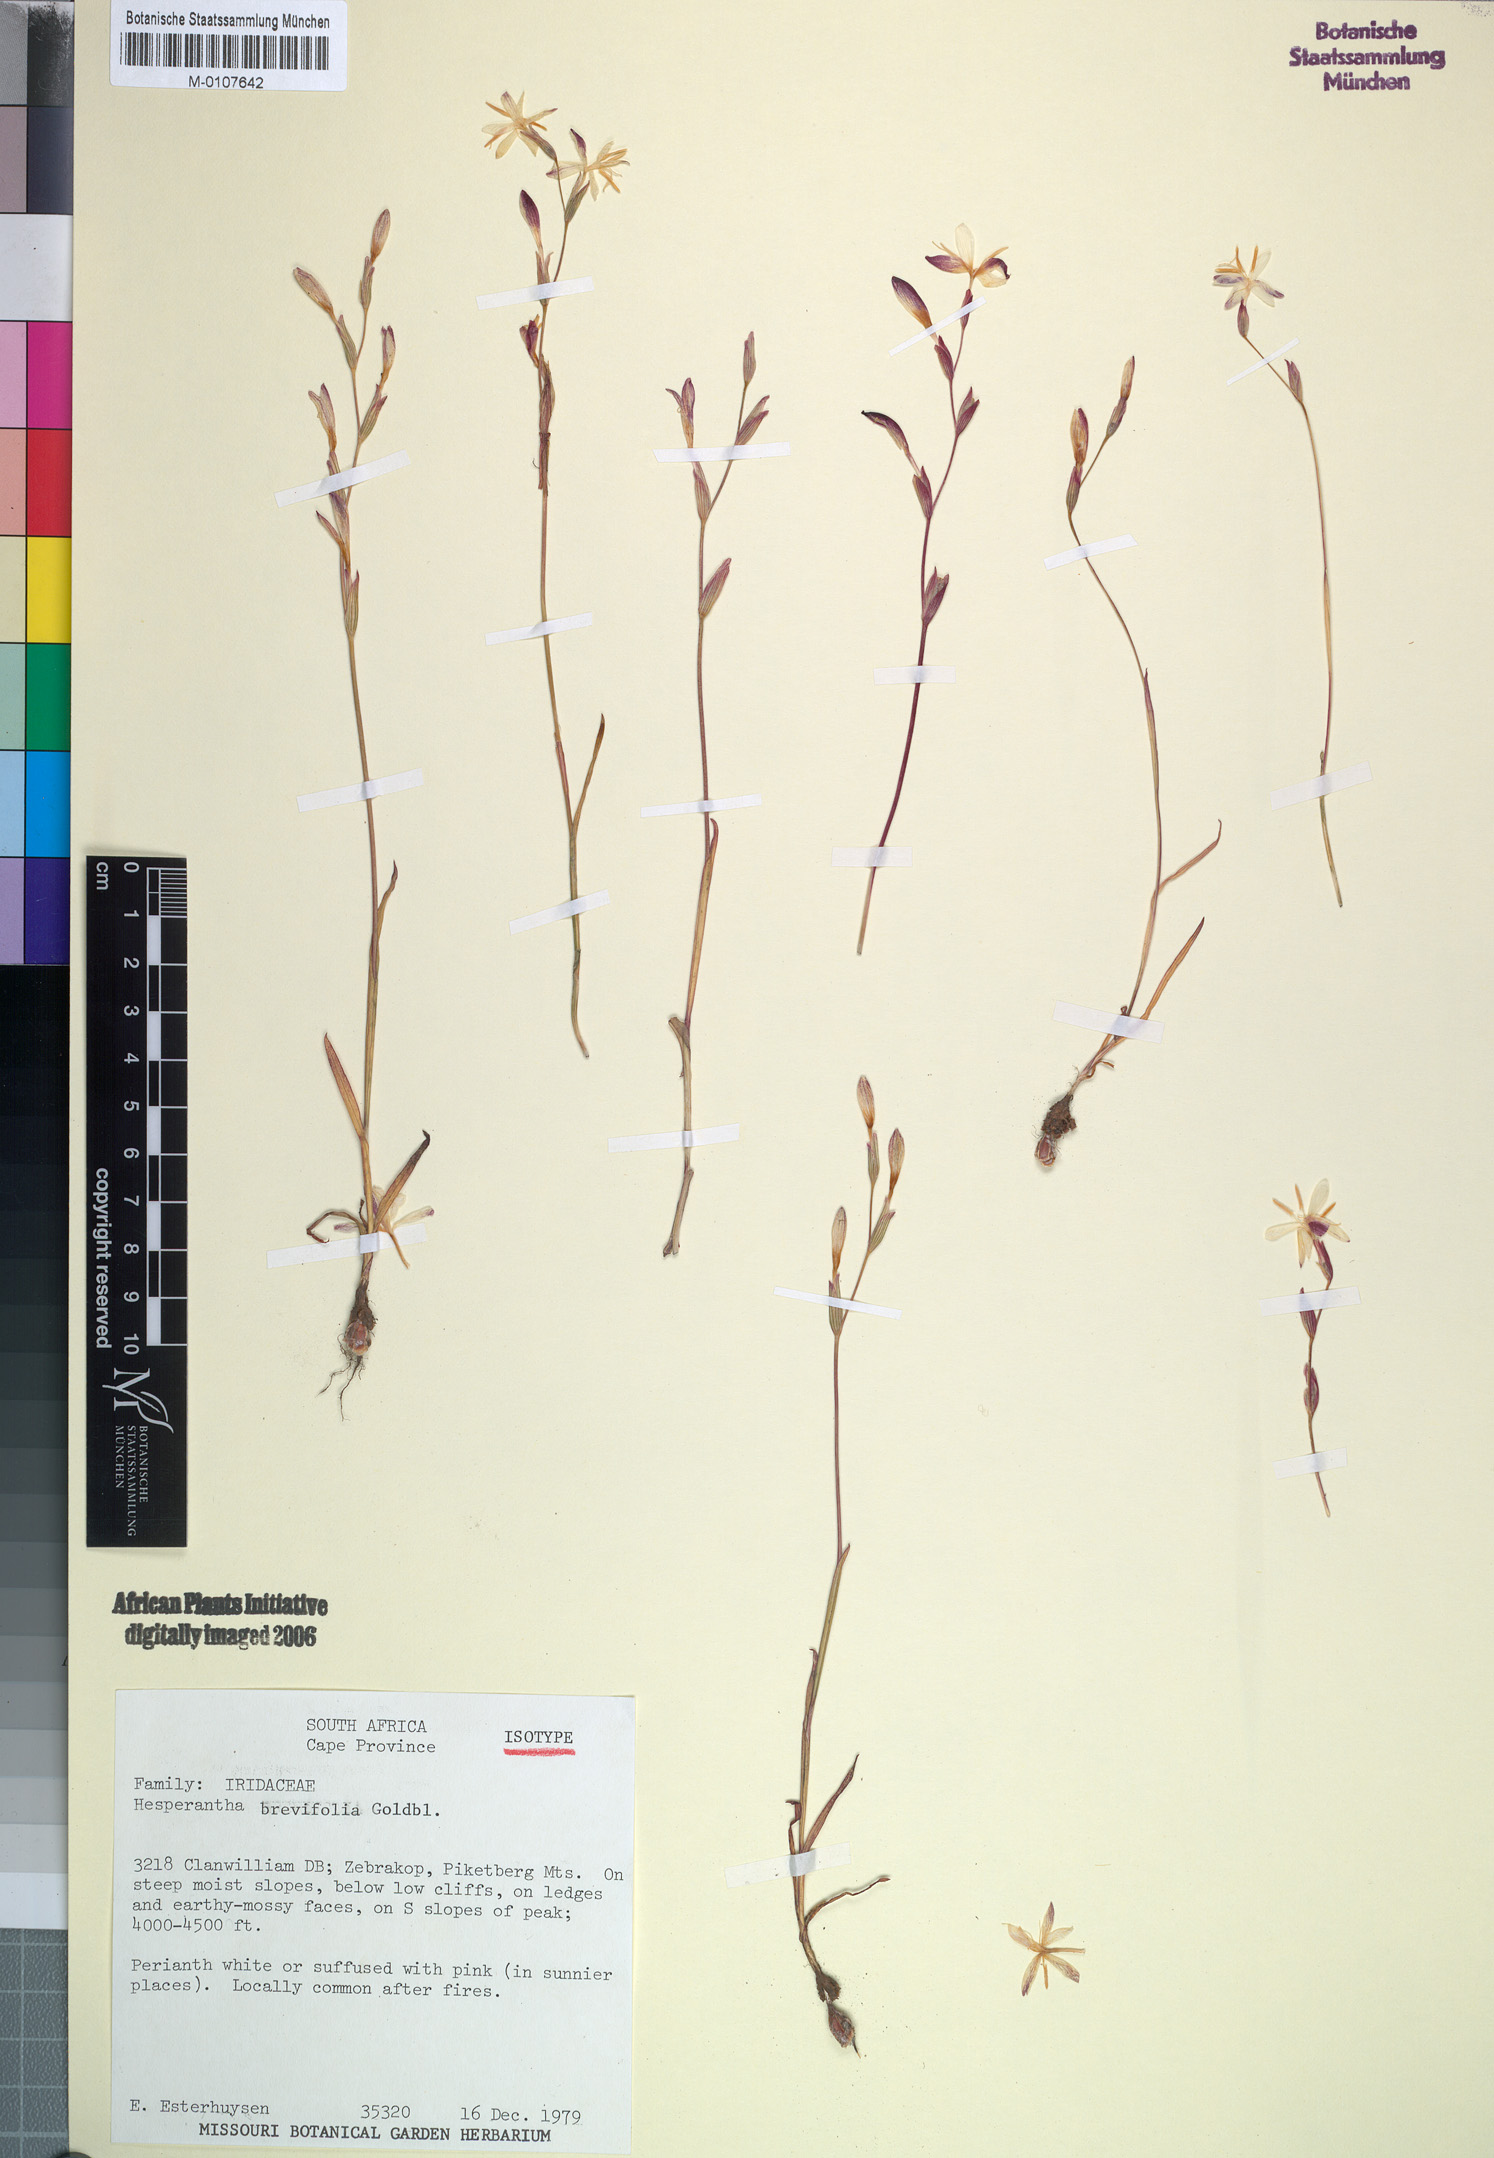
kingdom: Plantae
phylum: Tracheophyta
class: Liliopsida
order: Asparagales
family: Iridaceae
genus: Hesperantha
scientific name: Hesperantha brevifolia
